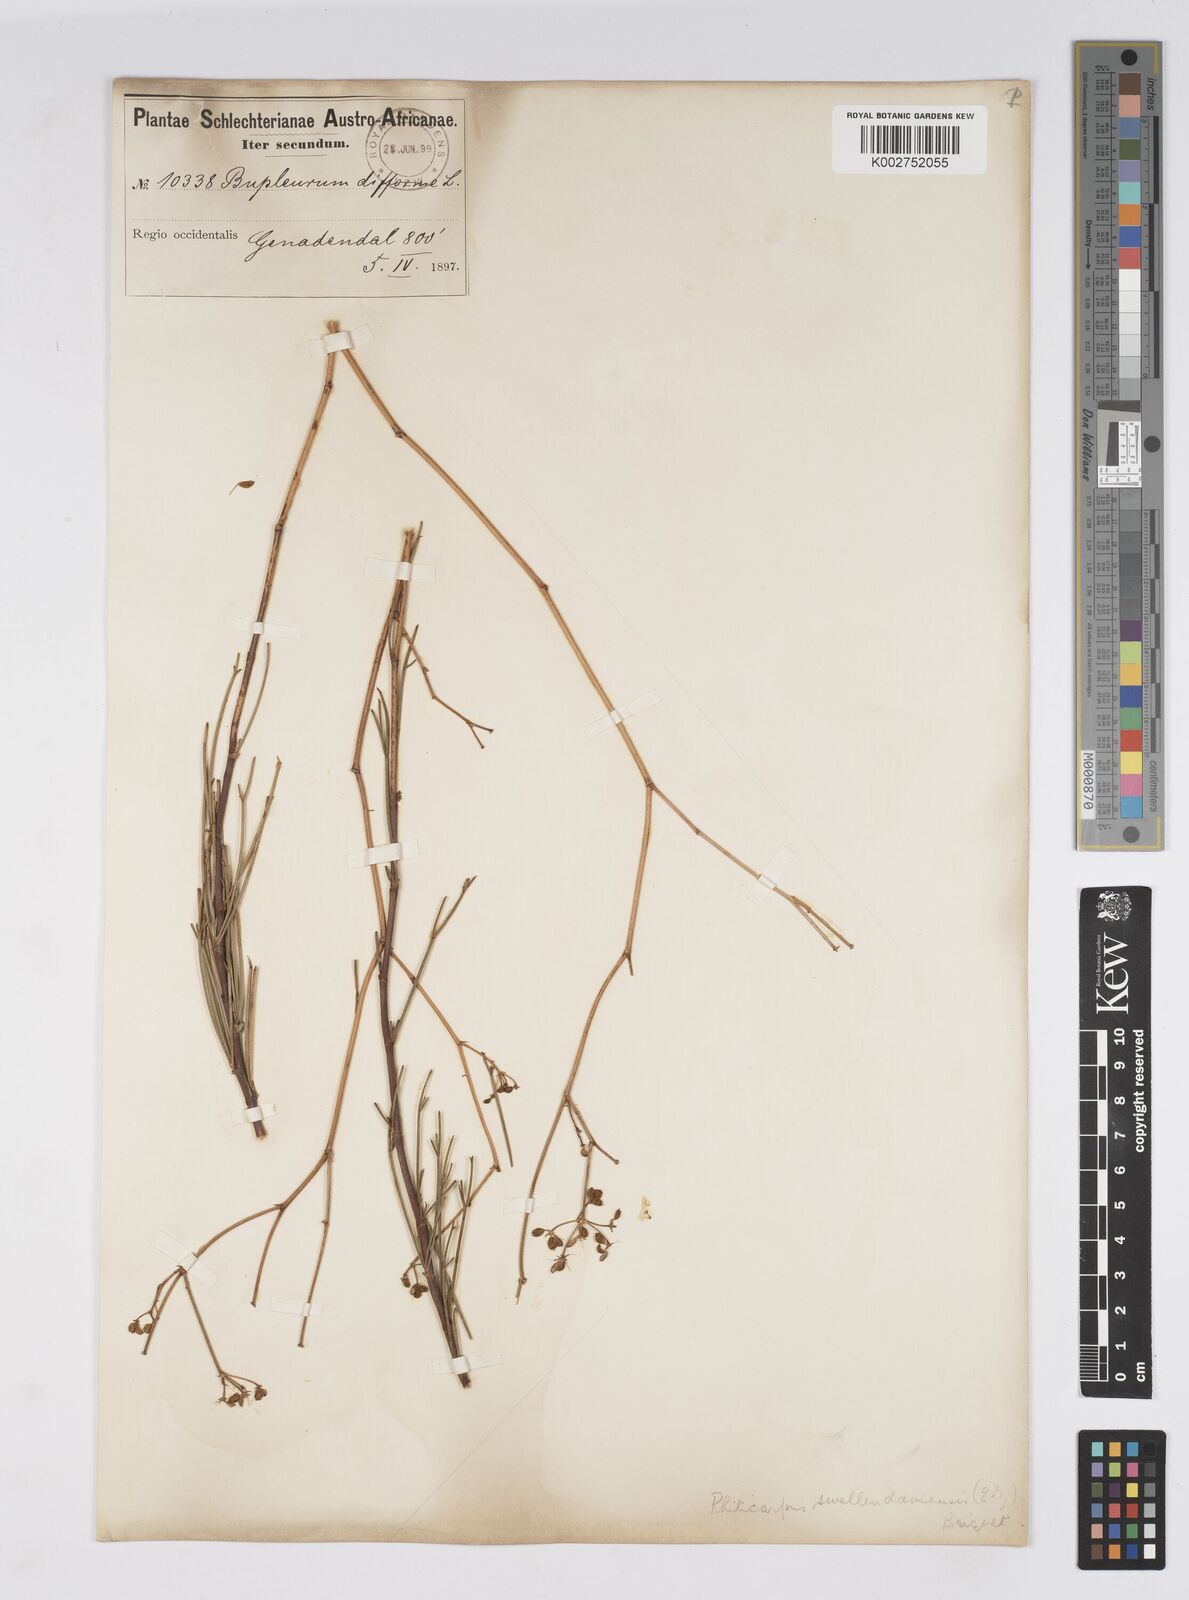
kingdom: Plantae
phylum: Tracheophyta
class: Magnoliopsida
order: Apiales
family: Apiaceae
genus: Anginon
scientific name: Anginon fruticosum
